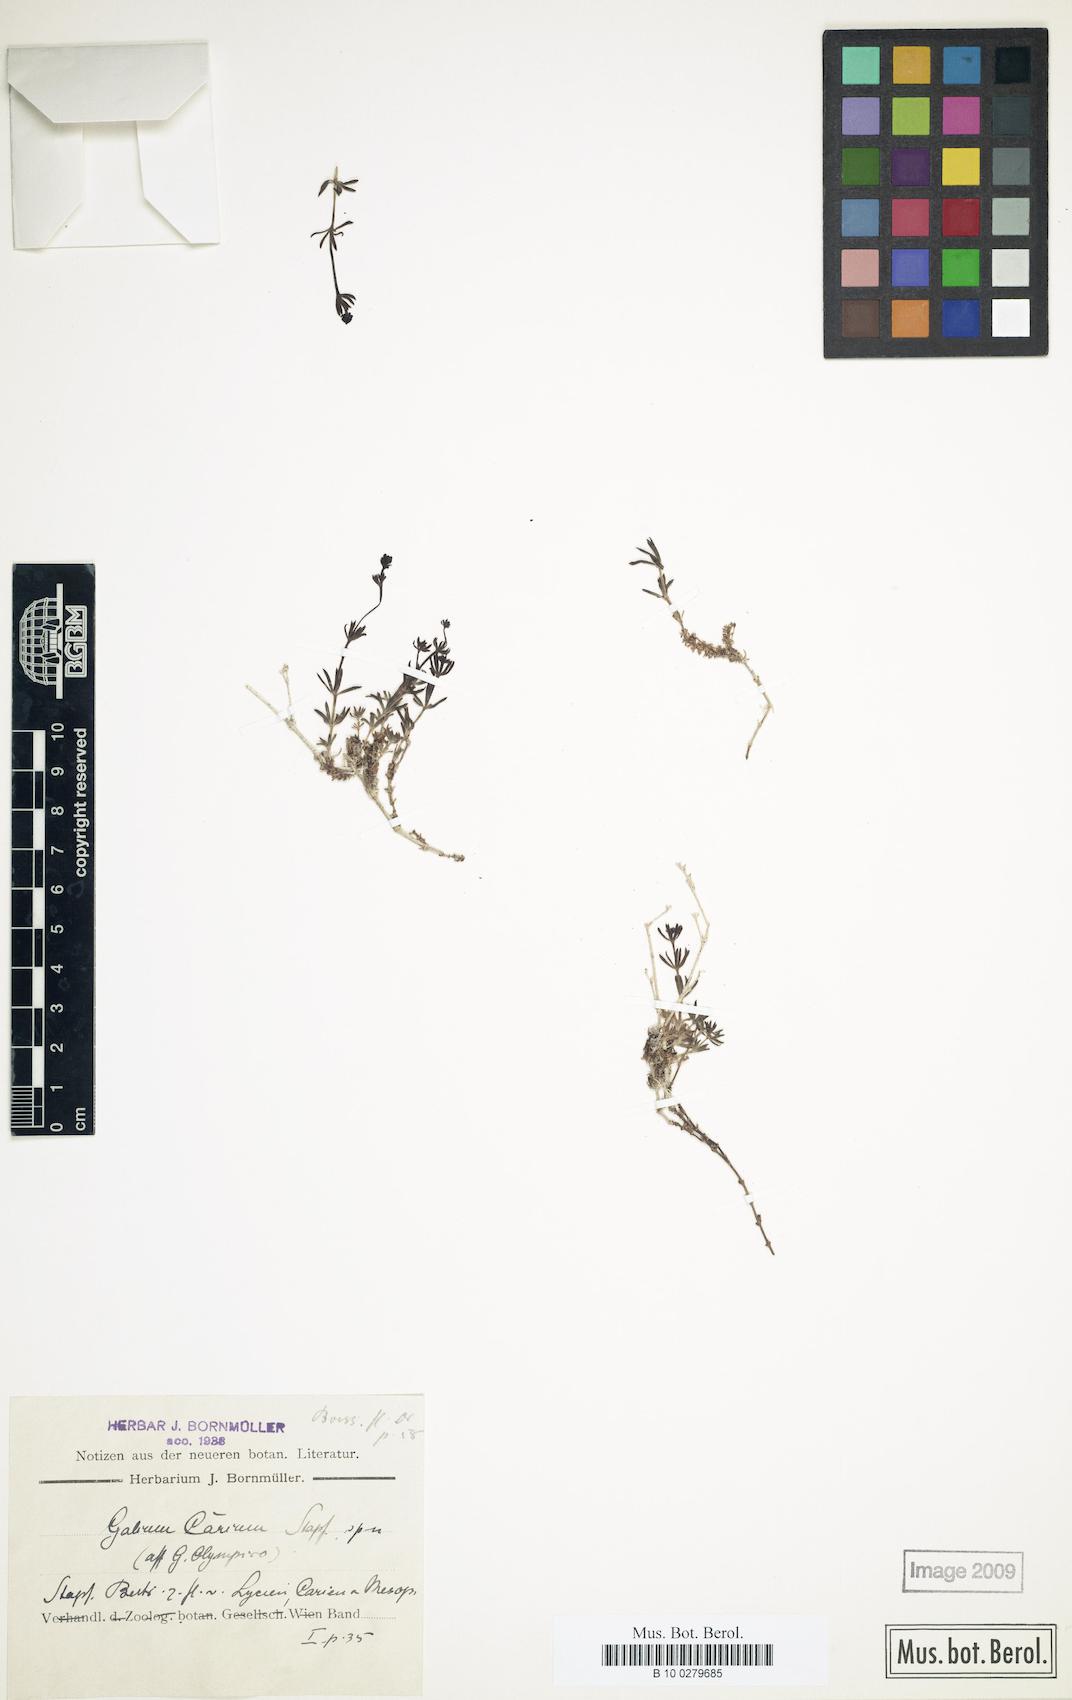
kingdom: Plantae
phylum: Tracheophyta
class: Magnoliopsida
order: Gentianales
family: Rubiaceae
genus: Galium
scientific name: Galium incanum
